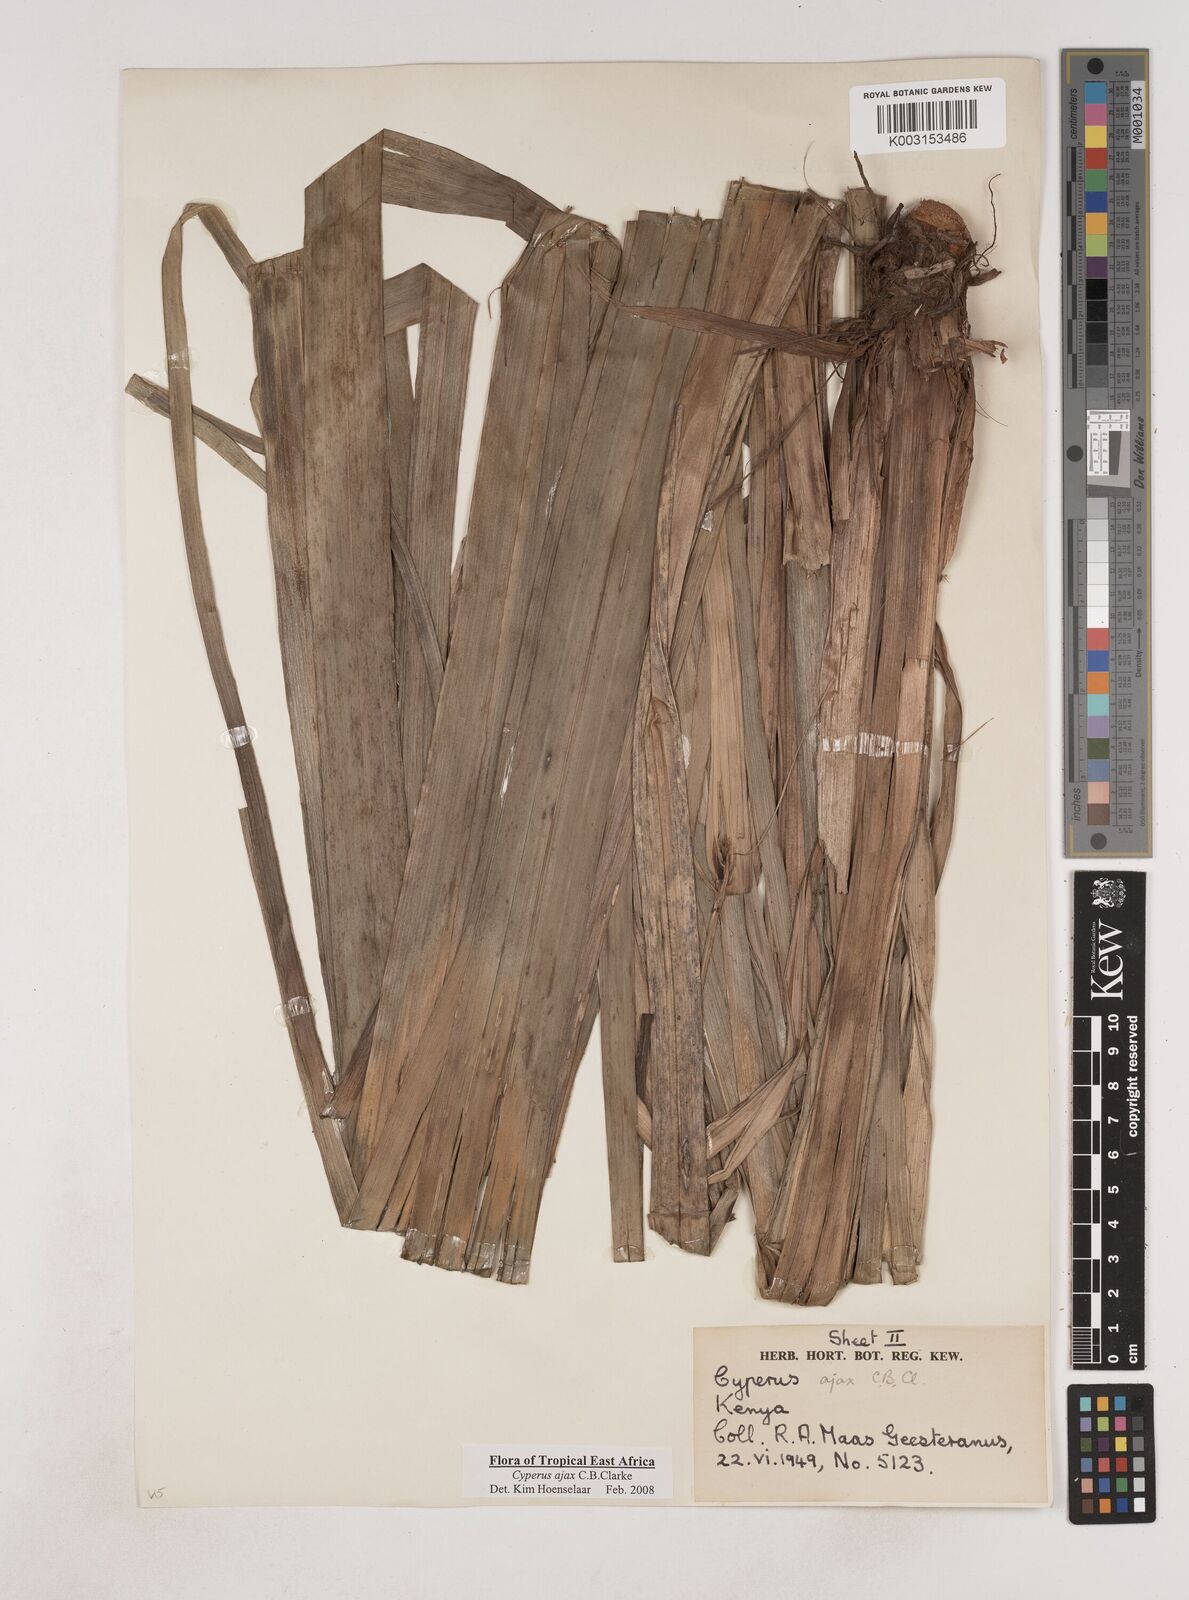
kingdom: Plantae
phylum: Tracheophyta
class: Liliopsida
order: Poales
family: Cyperaceae
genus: Cyperus
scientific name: Cyperus ajax
